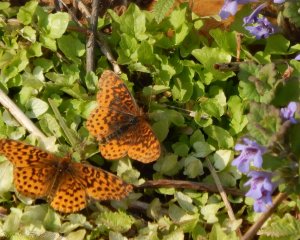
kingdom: Animalia
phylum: Arthropoda
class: Insecta
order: Lepidoptera
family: Nymphalidae
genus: Clossiana
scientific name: Clossiana toddi
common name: Meadow Fritillary
